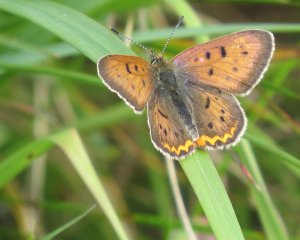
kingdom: Animalia
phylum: Arthropoda
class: Insecta
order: Lepidoptera
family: Lycaenidae
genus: Epidemia
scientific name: Epidemia dorcas
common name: Dorcas Copper
